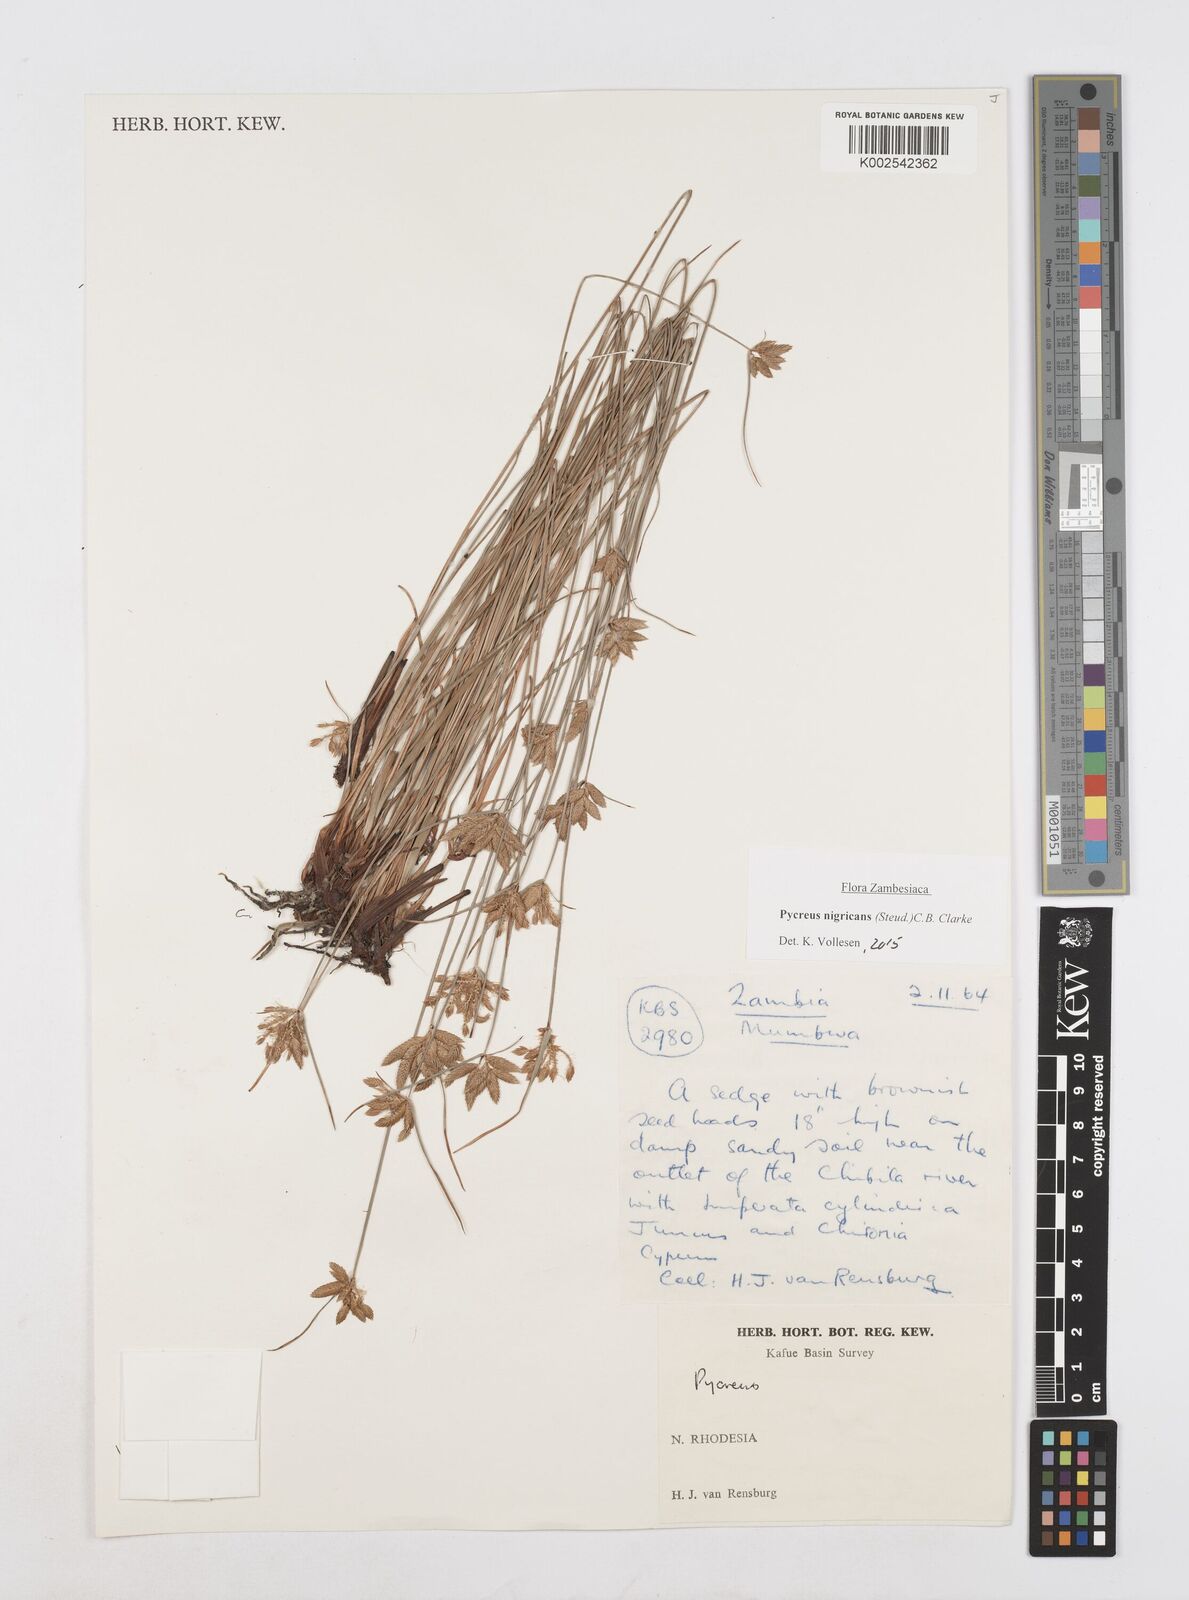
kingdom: Plantae
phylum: Tracheophyta
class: Liliopsida
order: Poales
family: Cyperaceae
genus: Cyperus
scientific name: Cyperus nigricans
